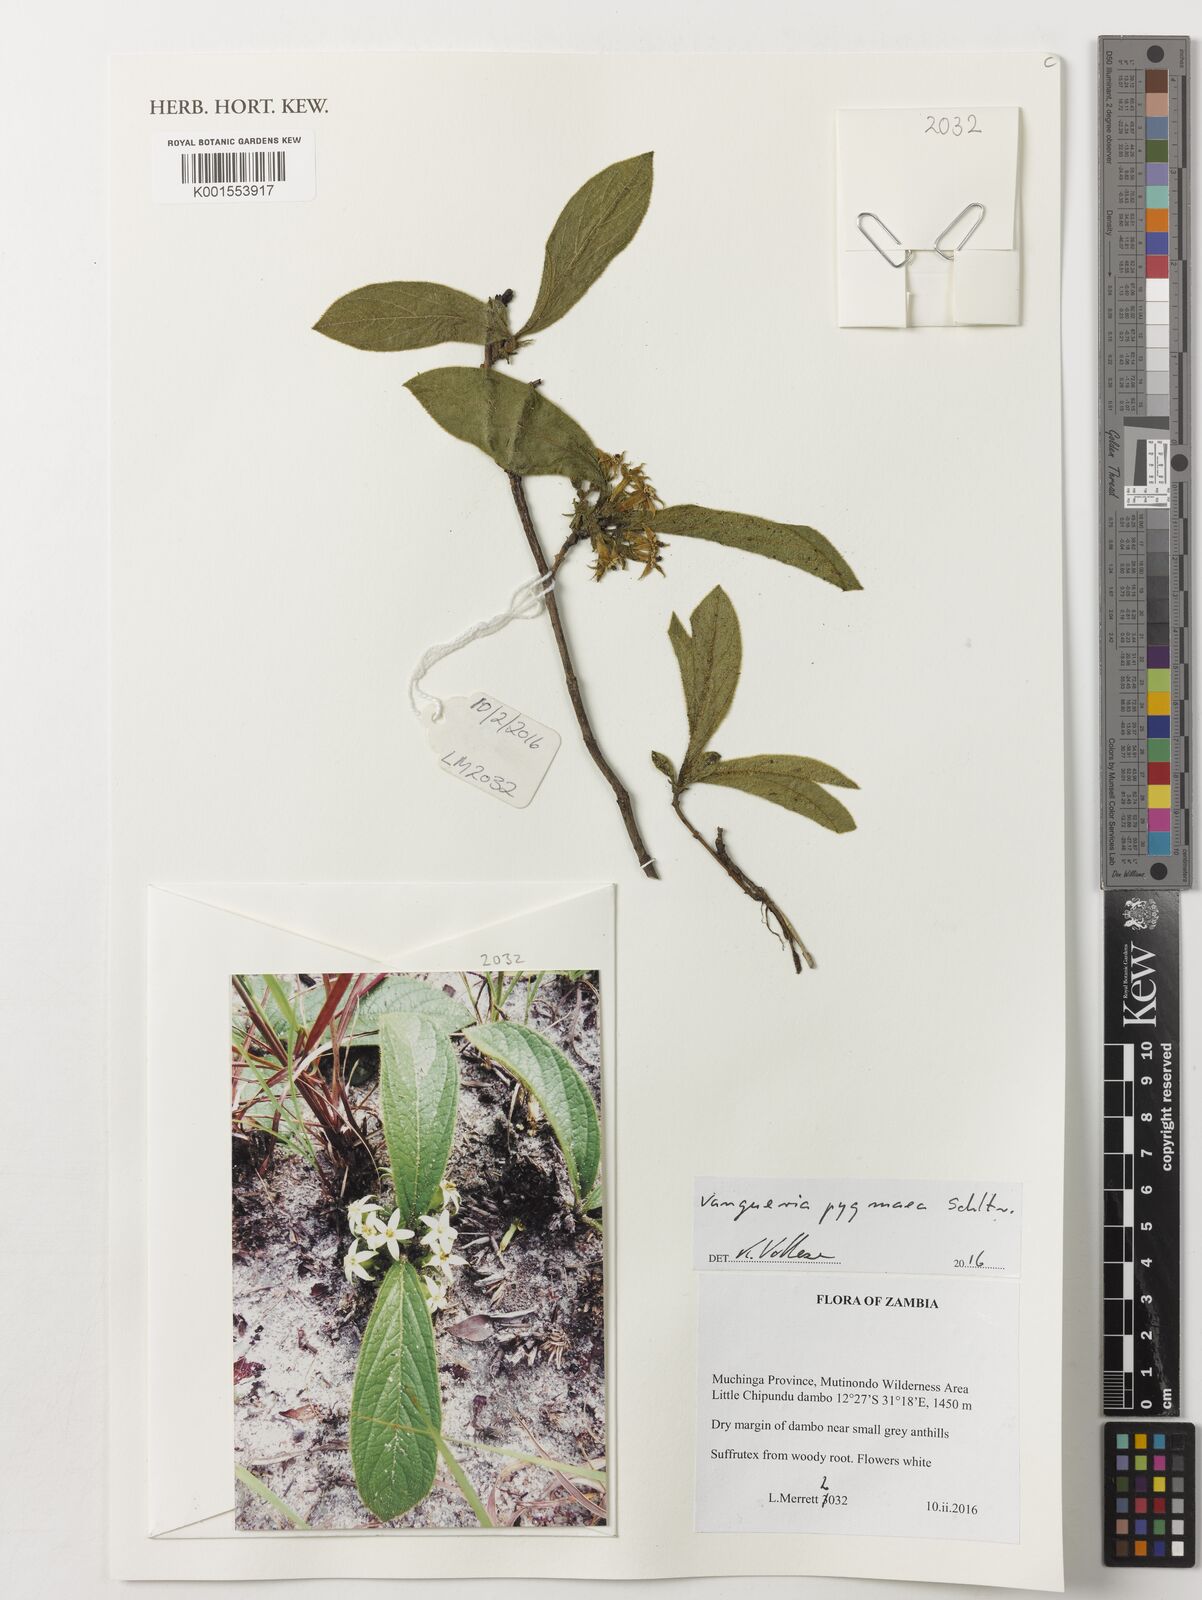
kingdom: Plantae
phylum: Tracheophyta
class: Magnoliopsida
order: Gentianales
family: Rubiaceae
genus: Vangueria
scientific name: Vangueria pygmaea
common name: Hairy gousiektebossie
